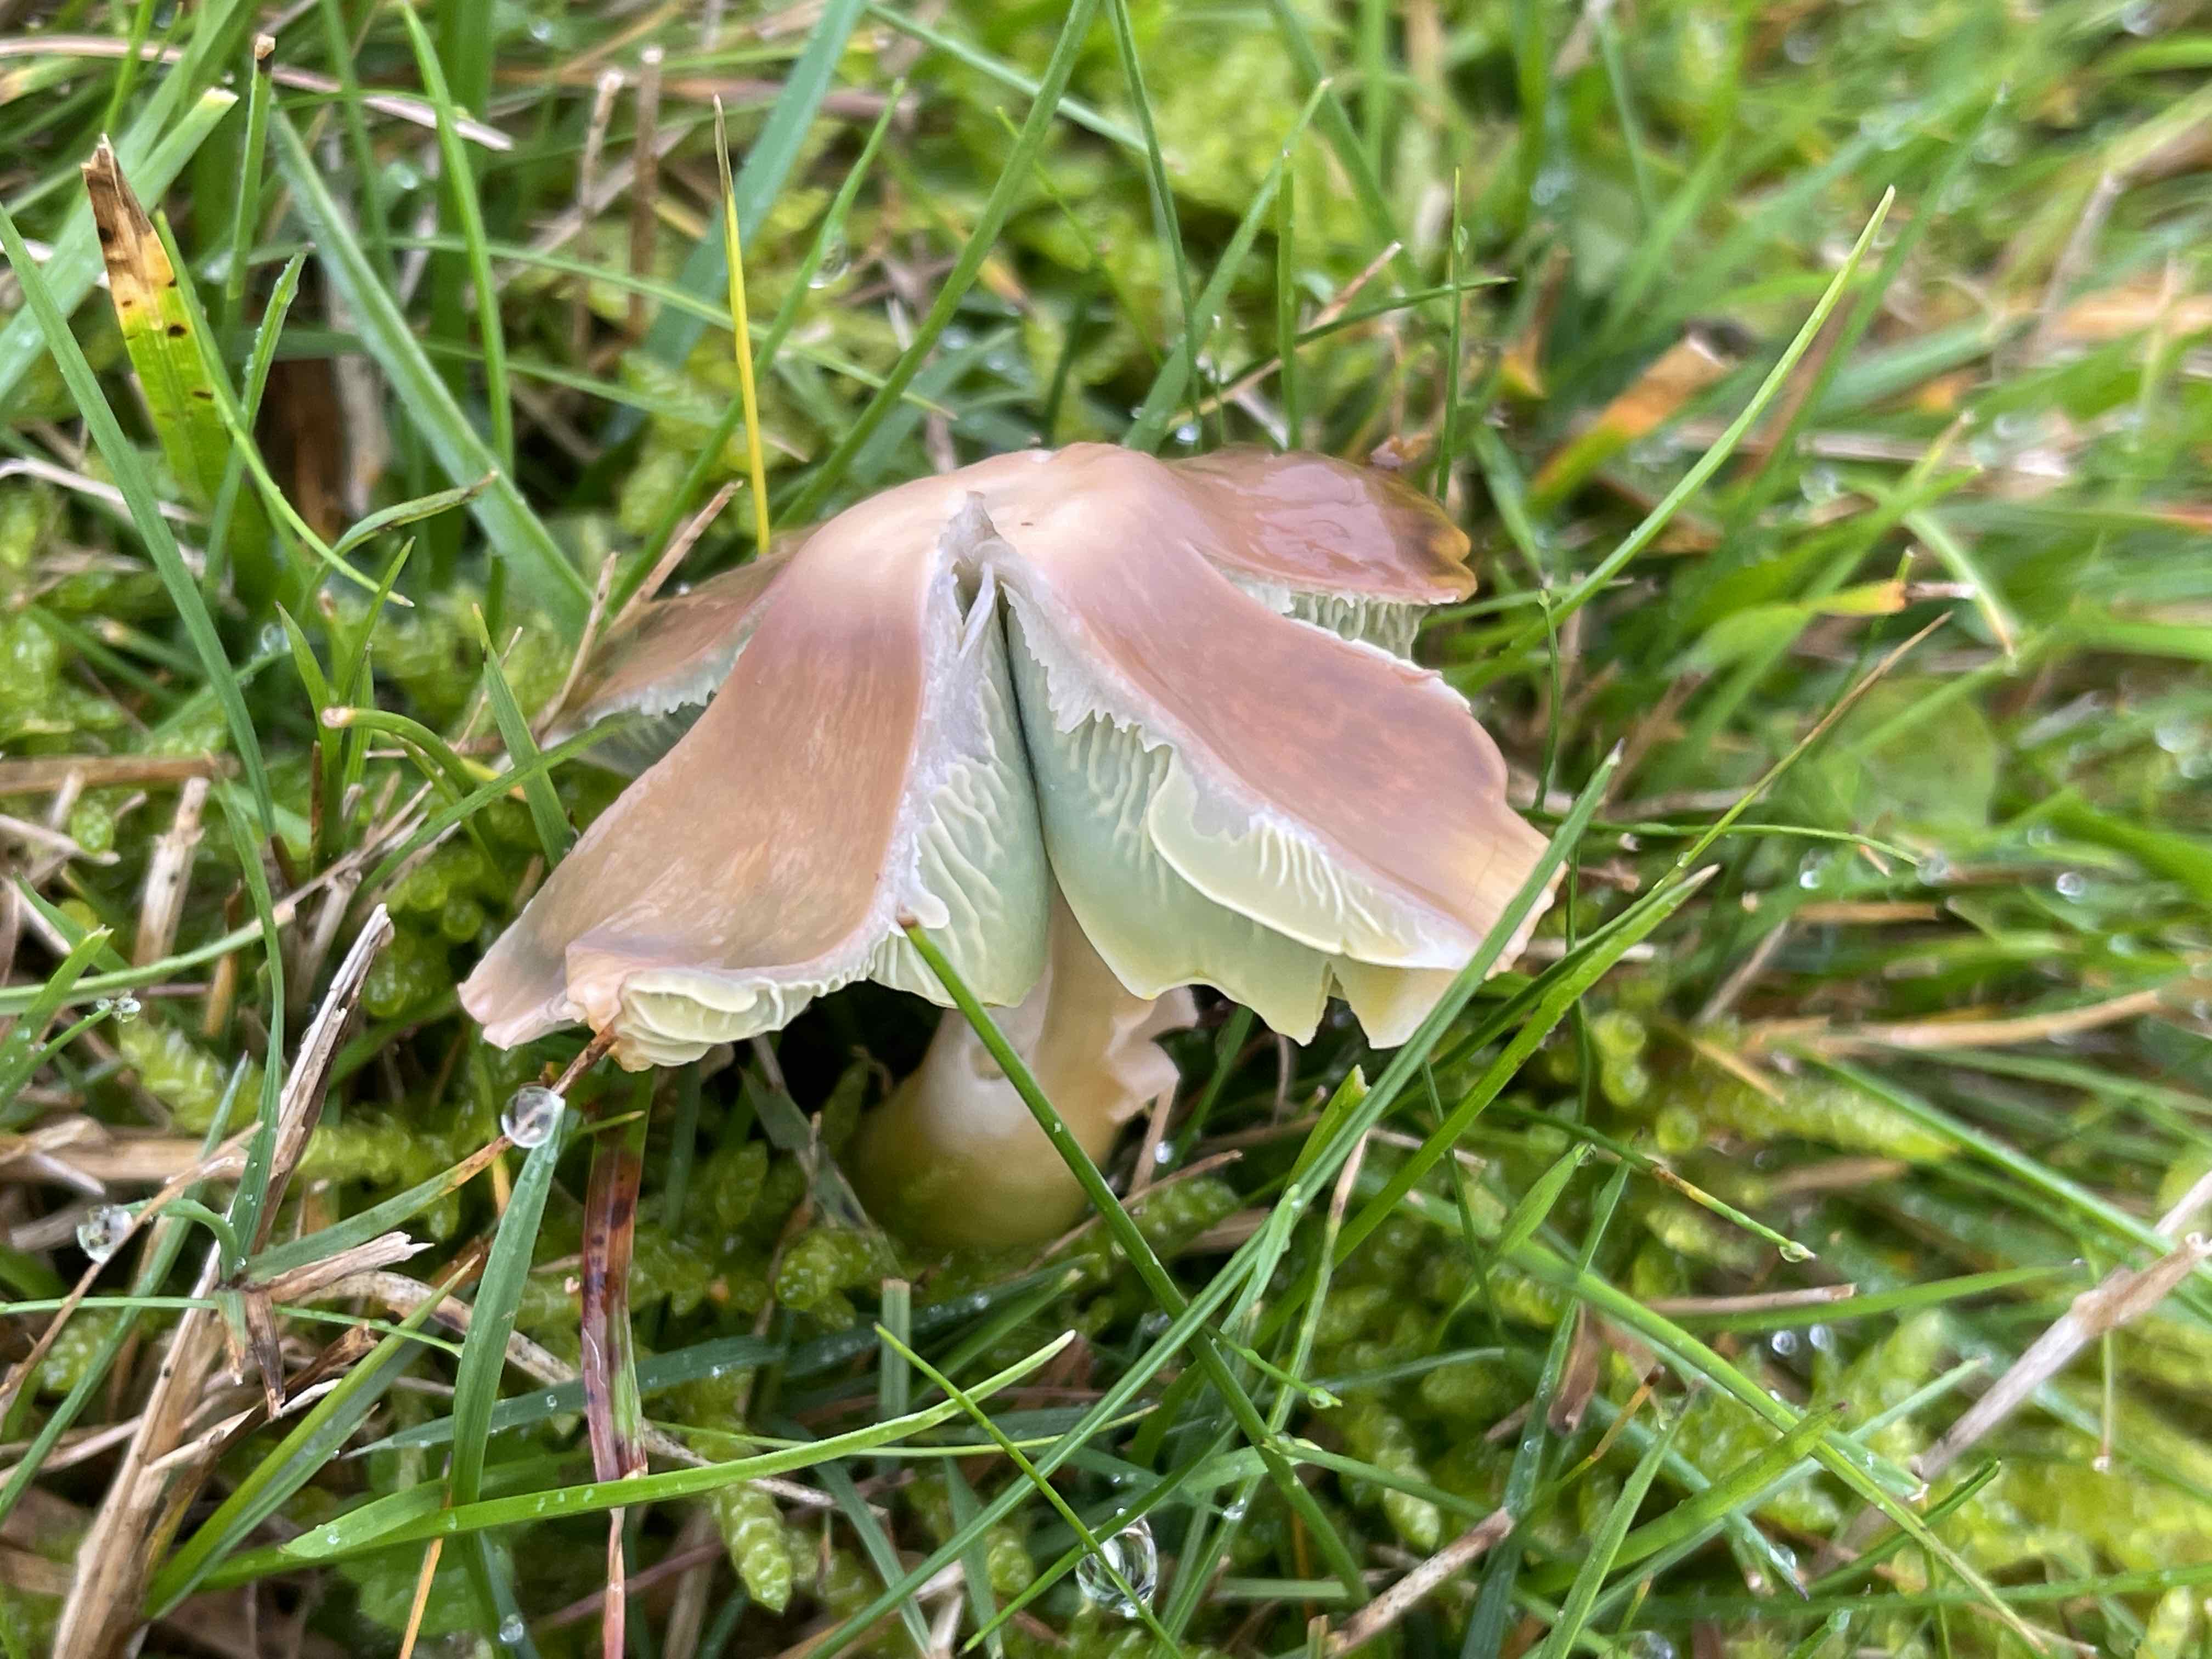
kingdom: Fungi
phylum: Basidiomycota
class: Agaricomycetes
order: Agaricales
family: Hygrophoraceae
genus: Gliophorus
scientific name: Gliophorus psittacinus
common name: papegøje-vokshat
